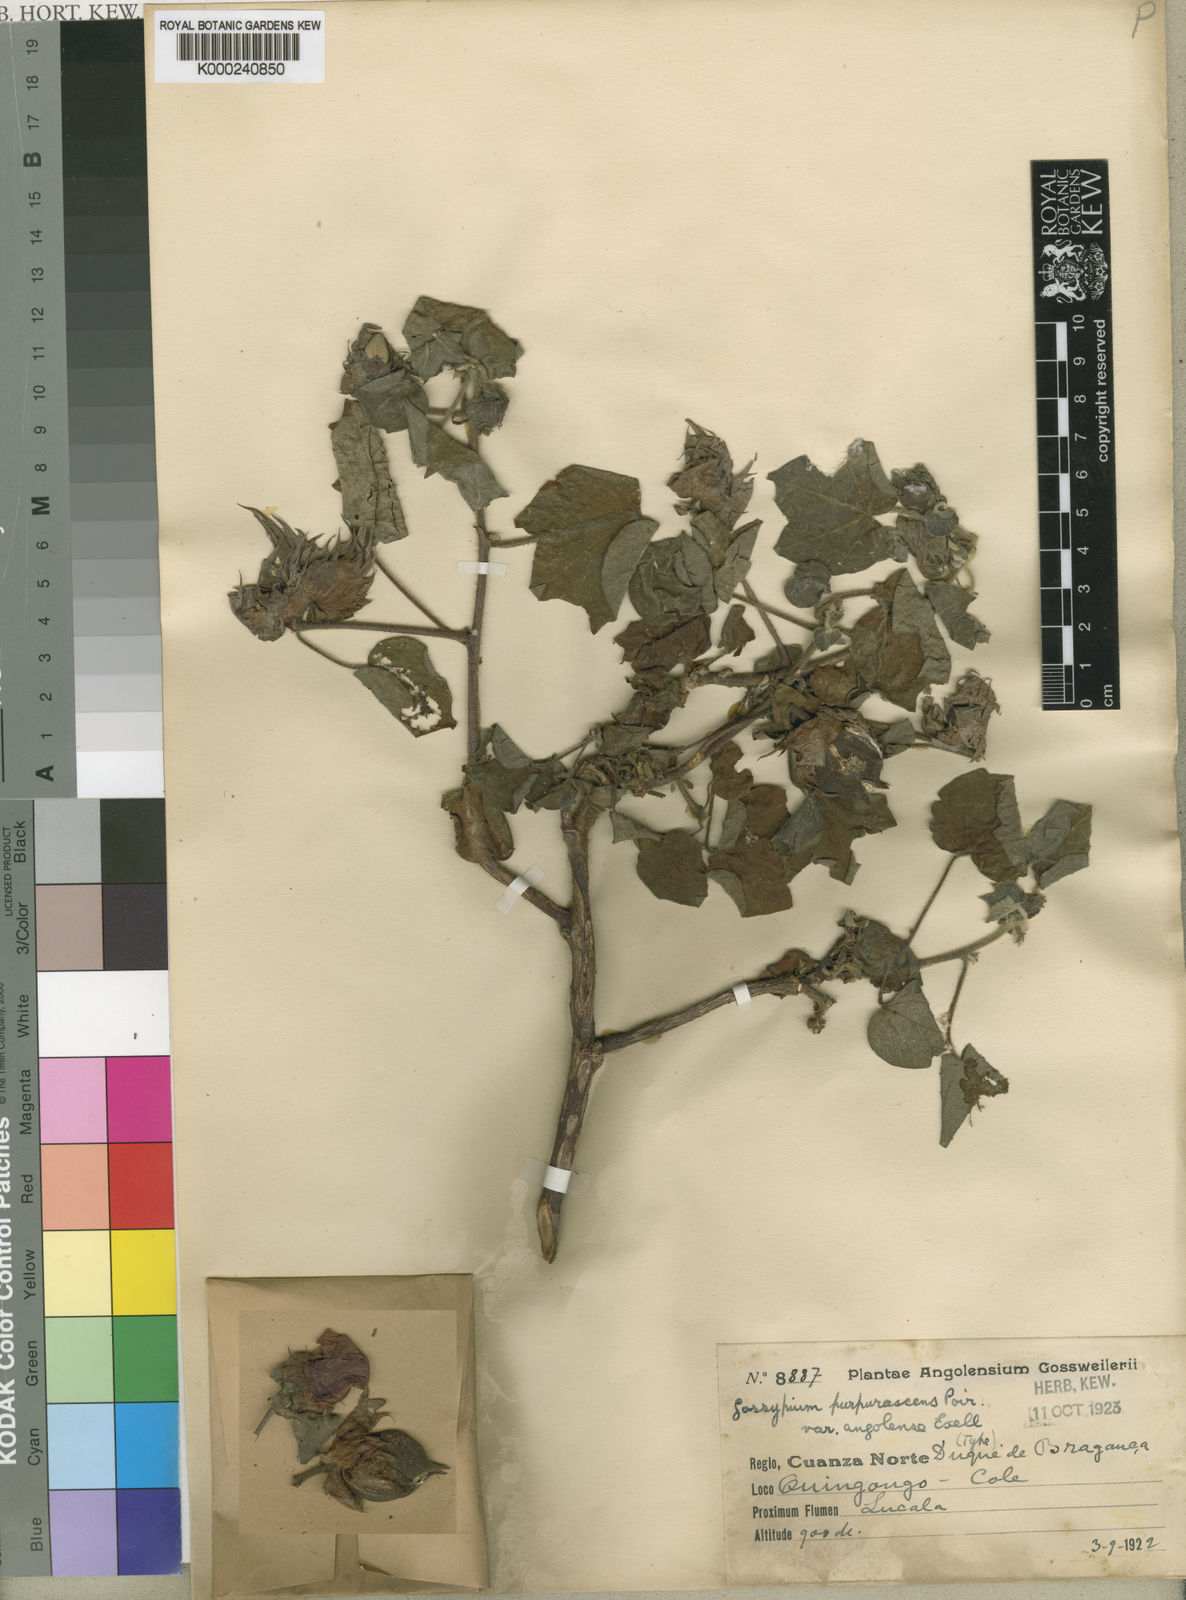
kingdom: Plantae
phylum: Tracheophyta
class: Magnoliopsida
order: Malvales
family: Malvaceae
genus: Gossypium
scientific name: Gossypium arboreum
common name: Tree cotton
